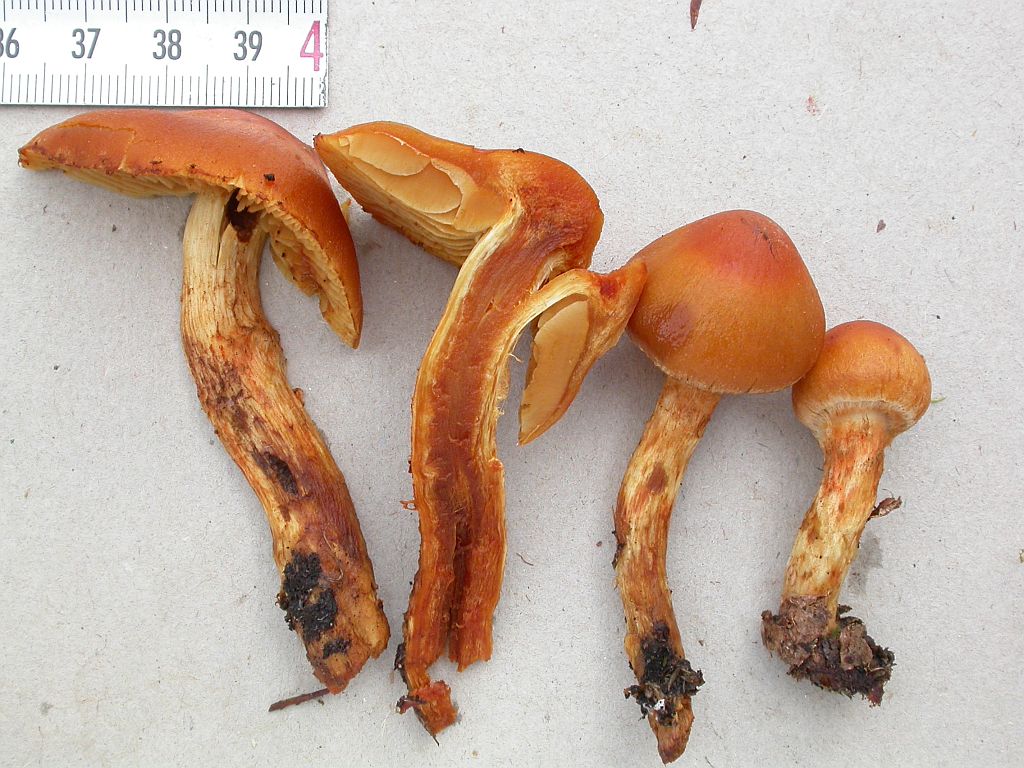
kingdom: Fungi
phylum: Basidiomycota
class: Agaricomycetes
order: Agaricales
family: Cortinariaceae
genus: Aureonarius
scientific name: Aureonarius limonius
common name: orangegul slørhat
